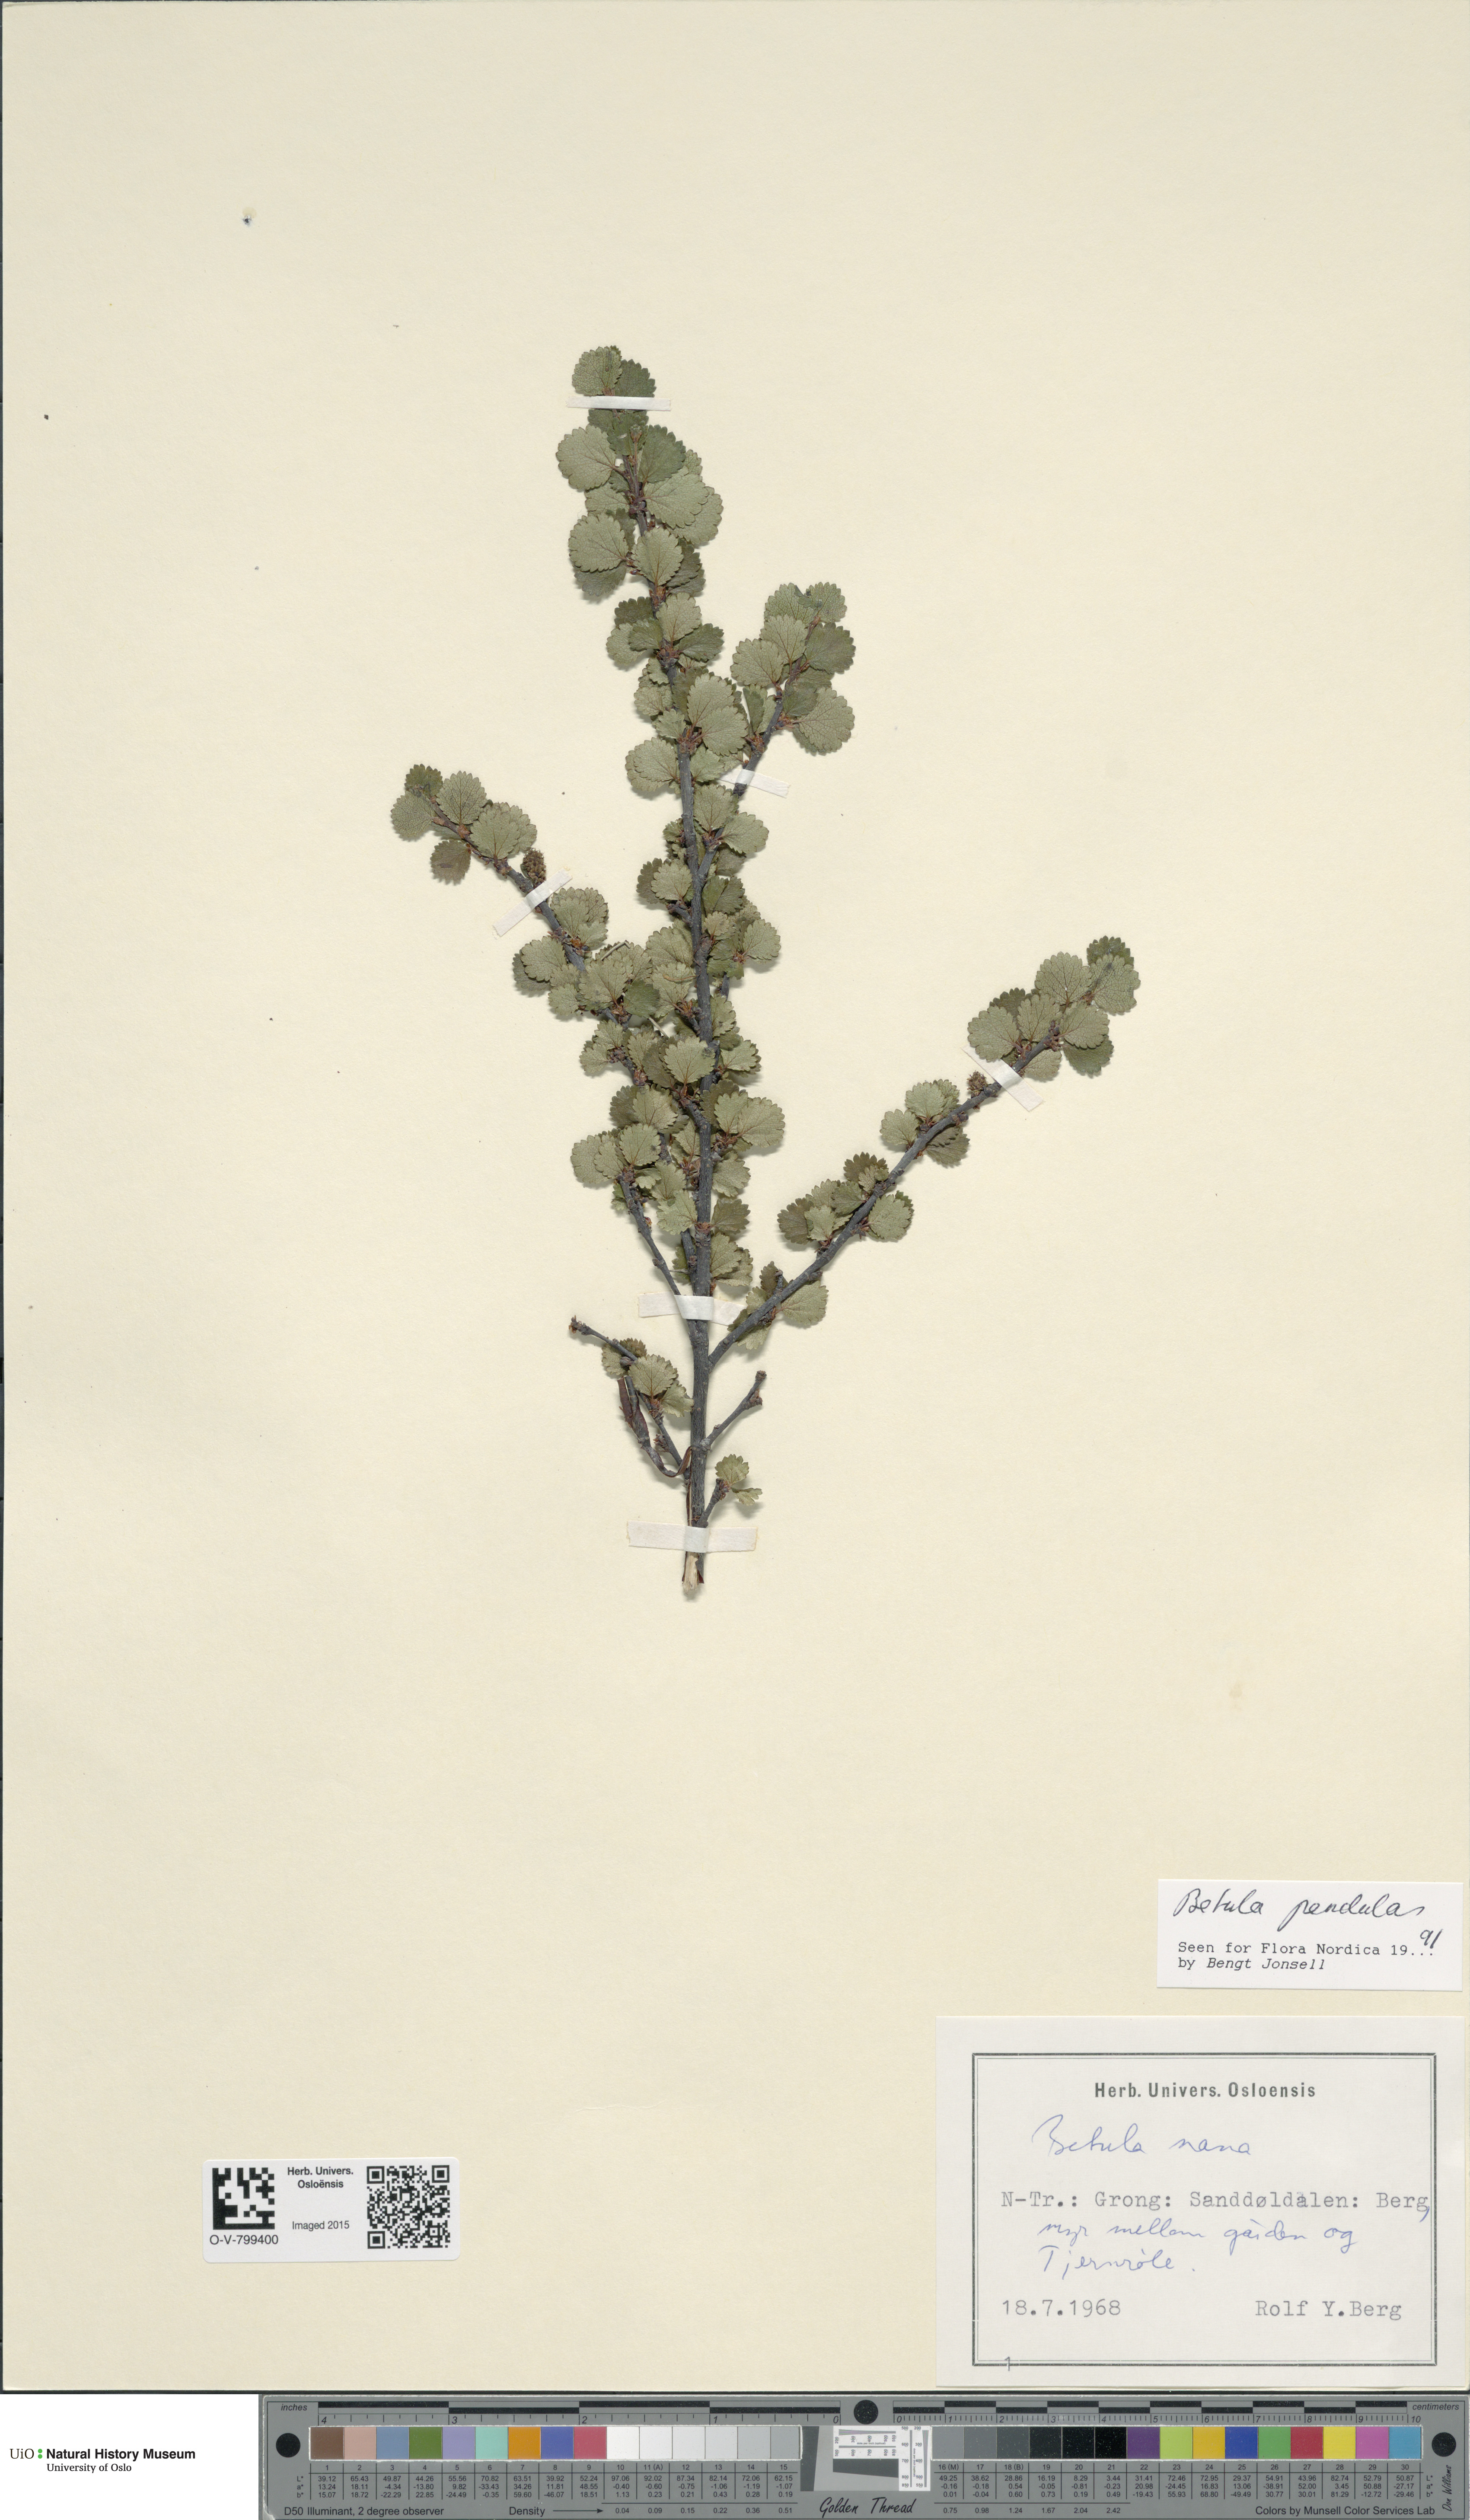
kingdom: Plantae
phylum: Tracheophyta
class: Magnoliopsida
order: Fagales
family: Betulaceae
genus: Betula
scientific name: Betula pendula
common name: Silver birch
